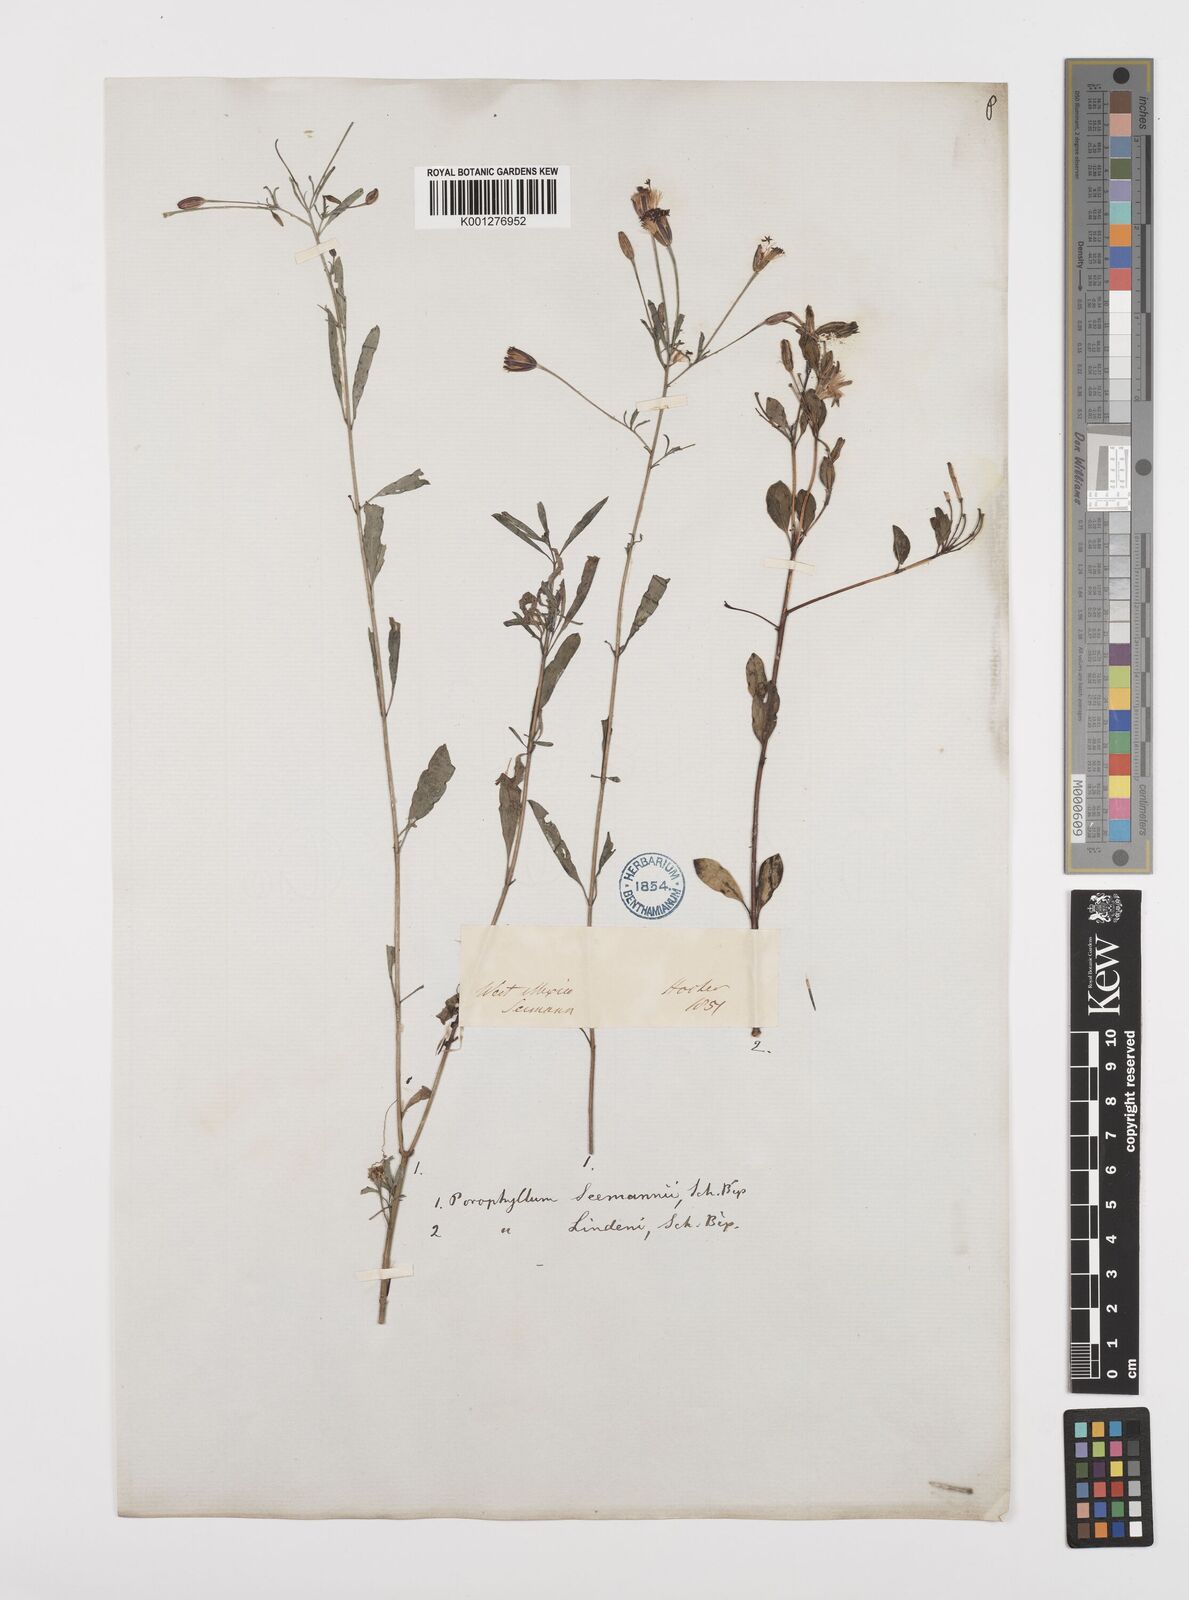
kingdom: Plantae
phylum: Tracheophyta
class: Magnoliopsida
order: Asterales
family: Asteraceae
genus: Porophyllum
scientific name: Porophyllum coloratum
